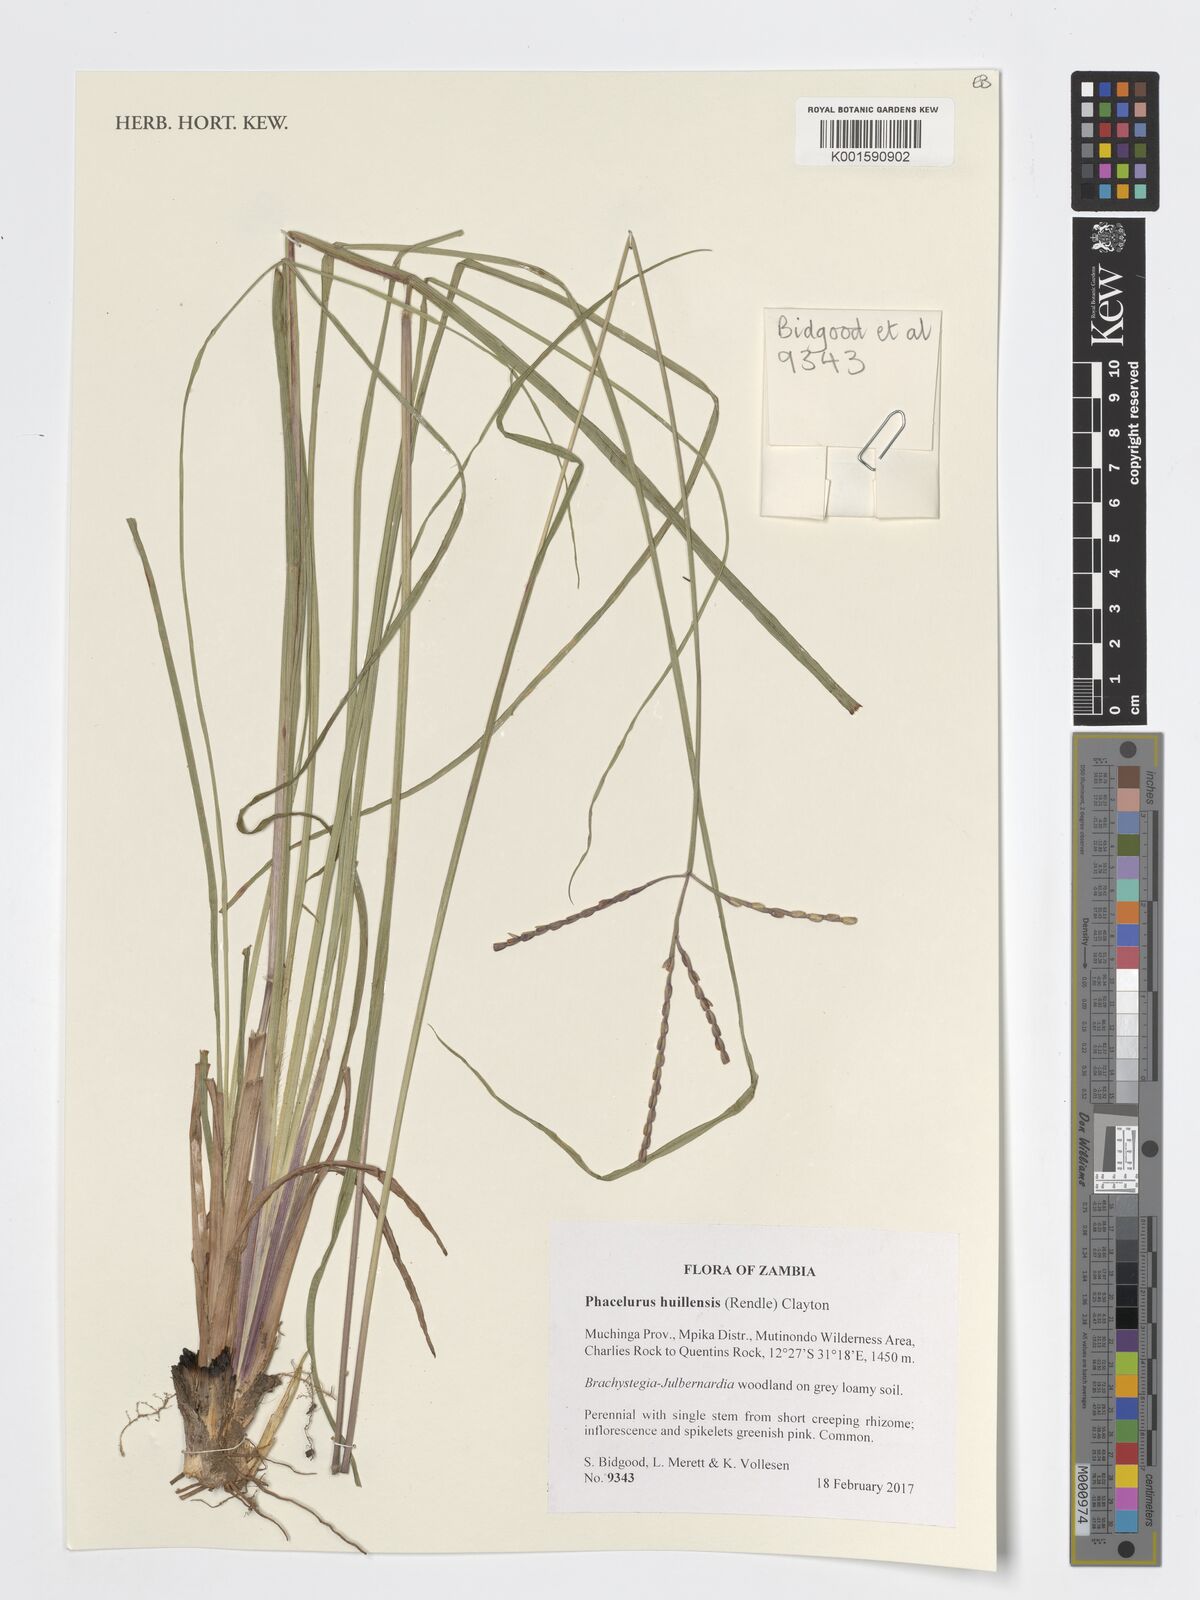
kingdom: Plantae
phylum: Tracheophyta
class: Liliopsida
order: Poales
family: Poaceae
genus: Thyrsia
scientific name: Thyrsia huillensis
